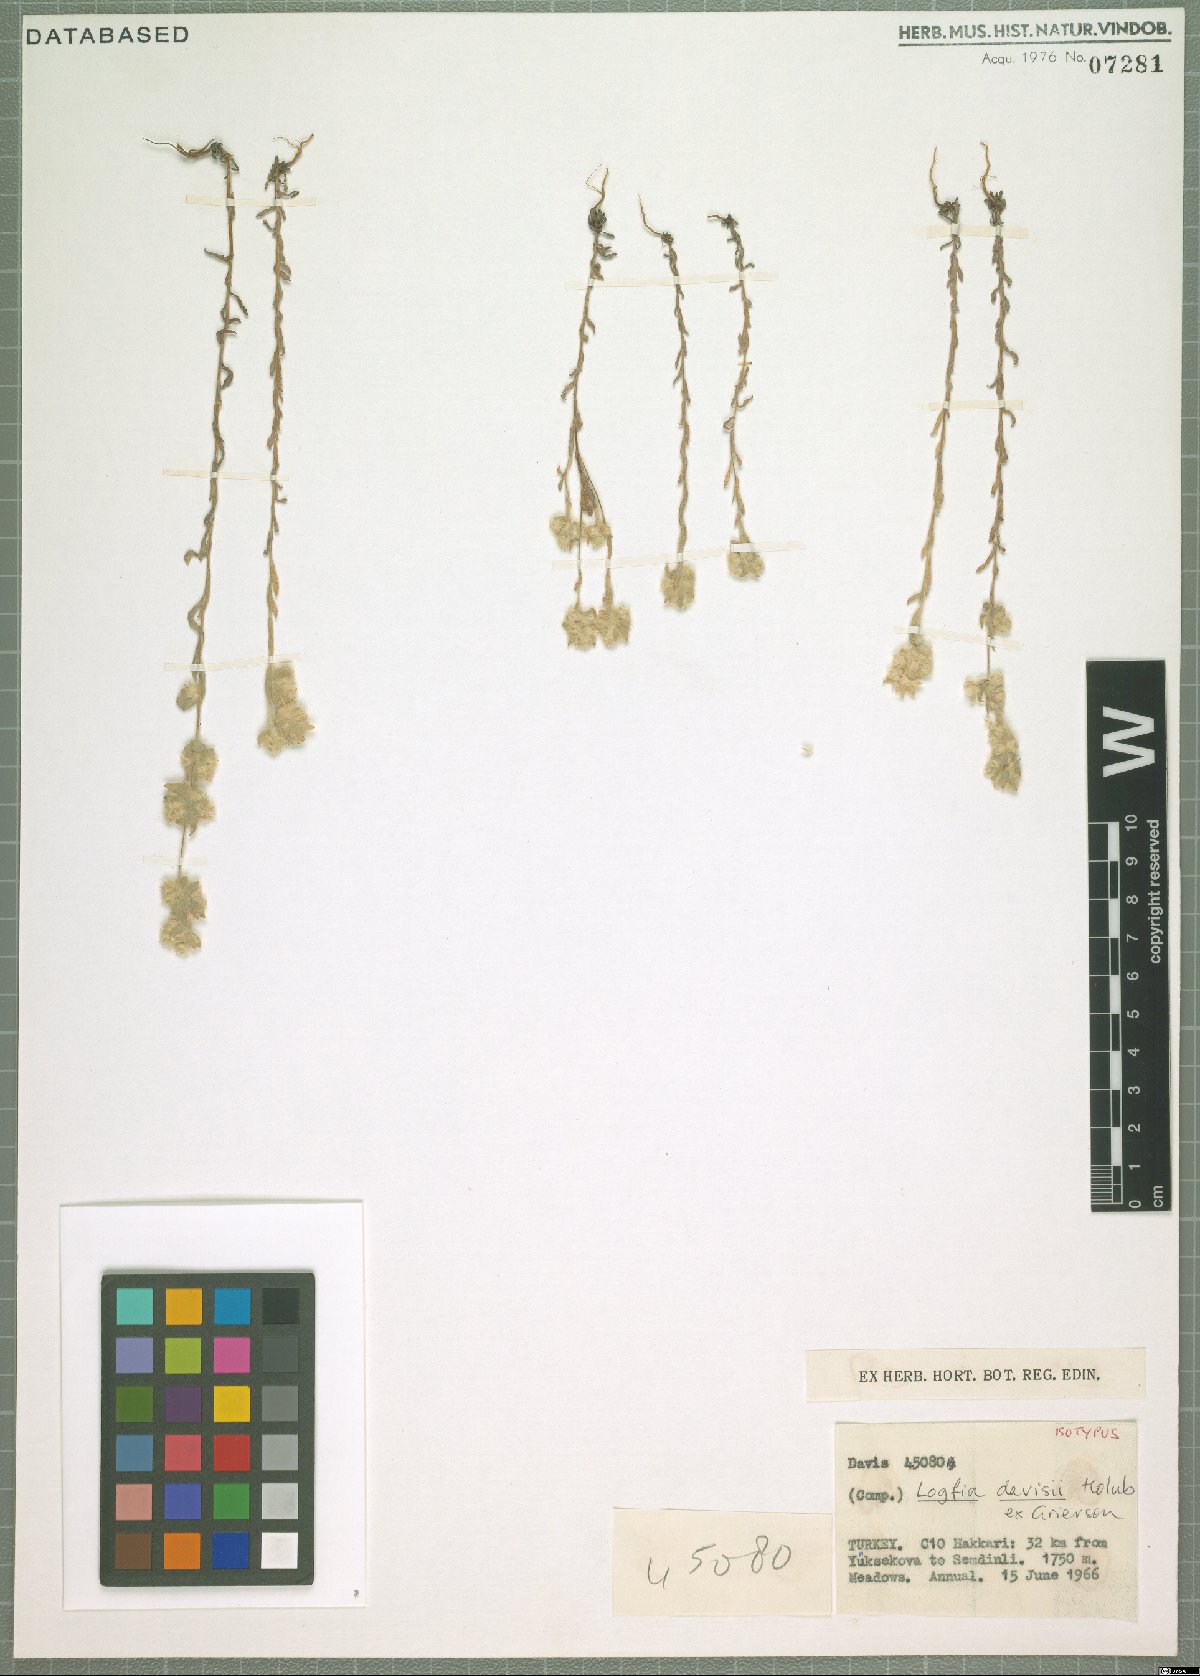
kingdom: Plantae
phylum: Tracheophyta
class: Magnoliopsida
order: Asterales
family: Asteraceae
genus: Filago
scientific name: Filago arvensis
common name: Field cudweed
